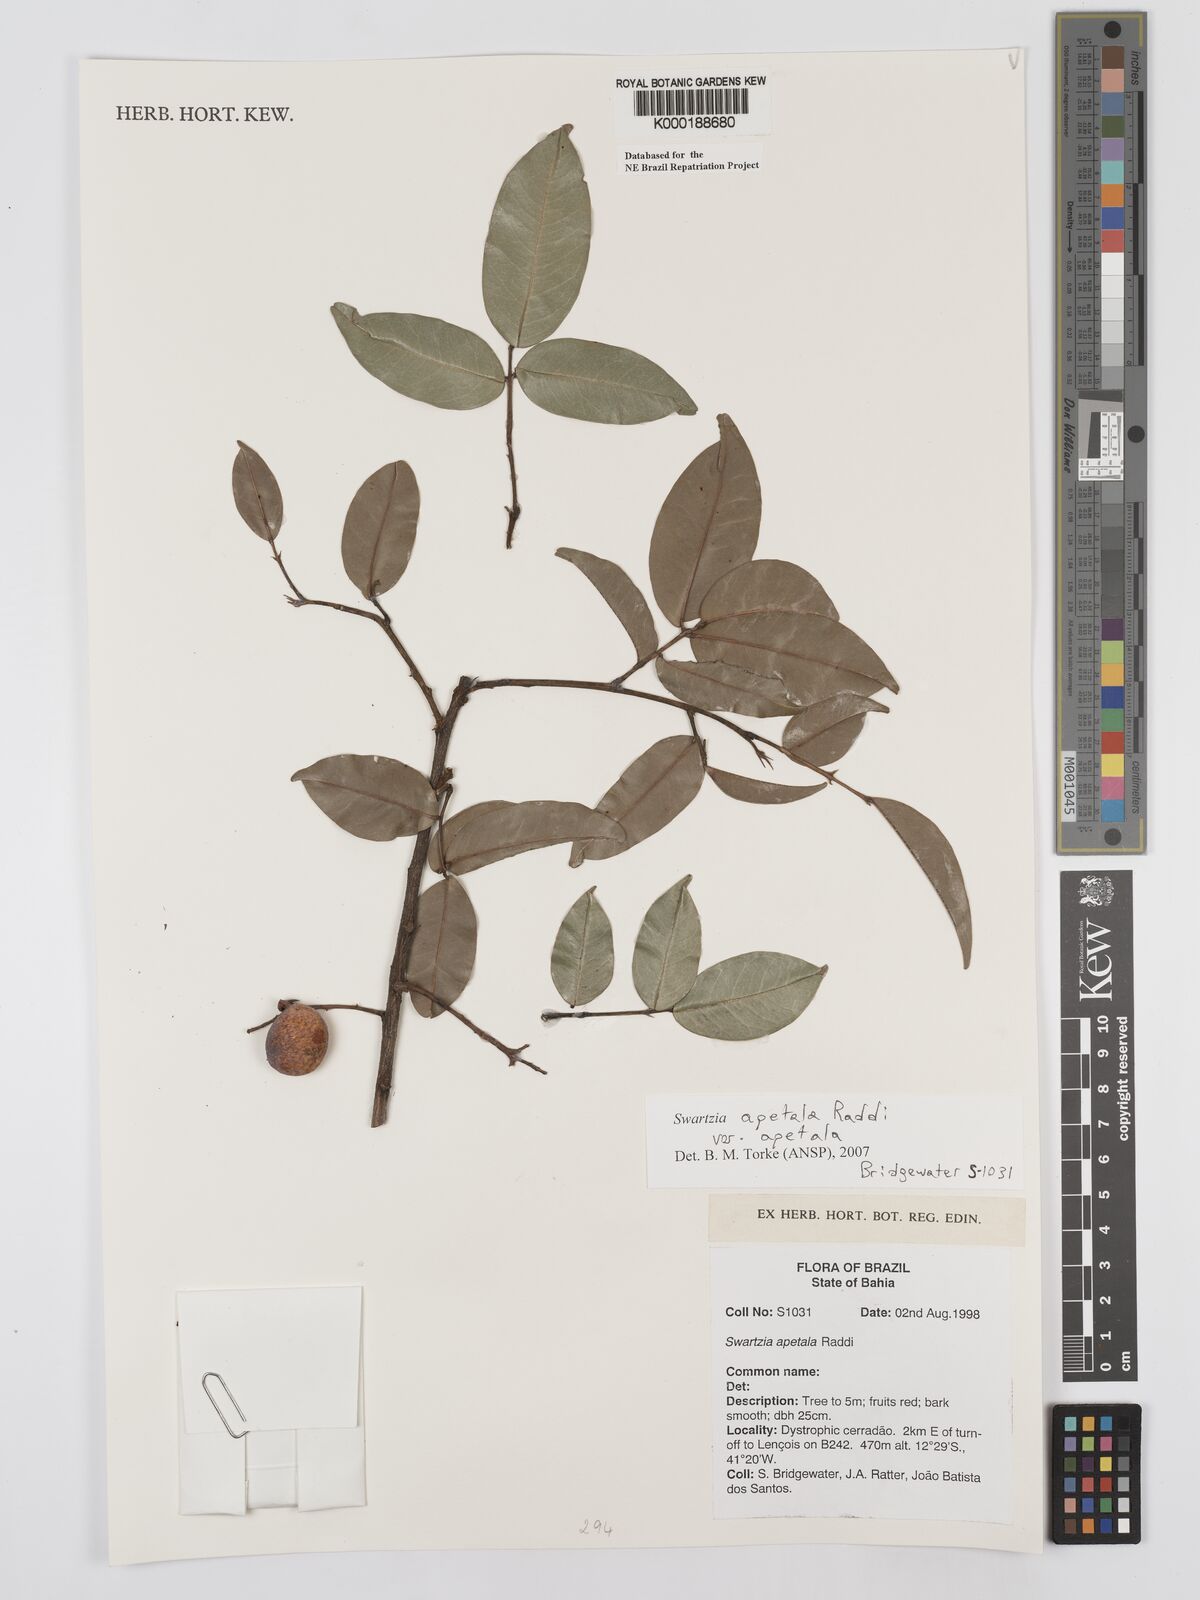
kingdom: Plantae
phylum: Tracheophyta
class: Magnoliopsida
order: Fabales
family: Fabaceae
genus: Swartzia
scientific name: Swartzia apetala
